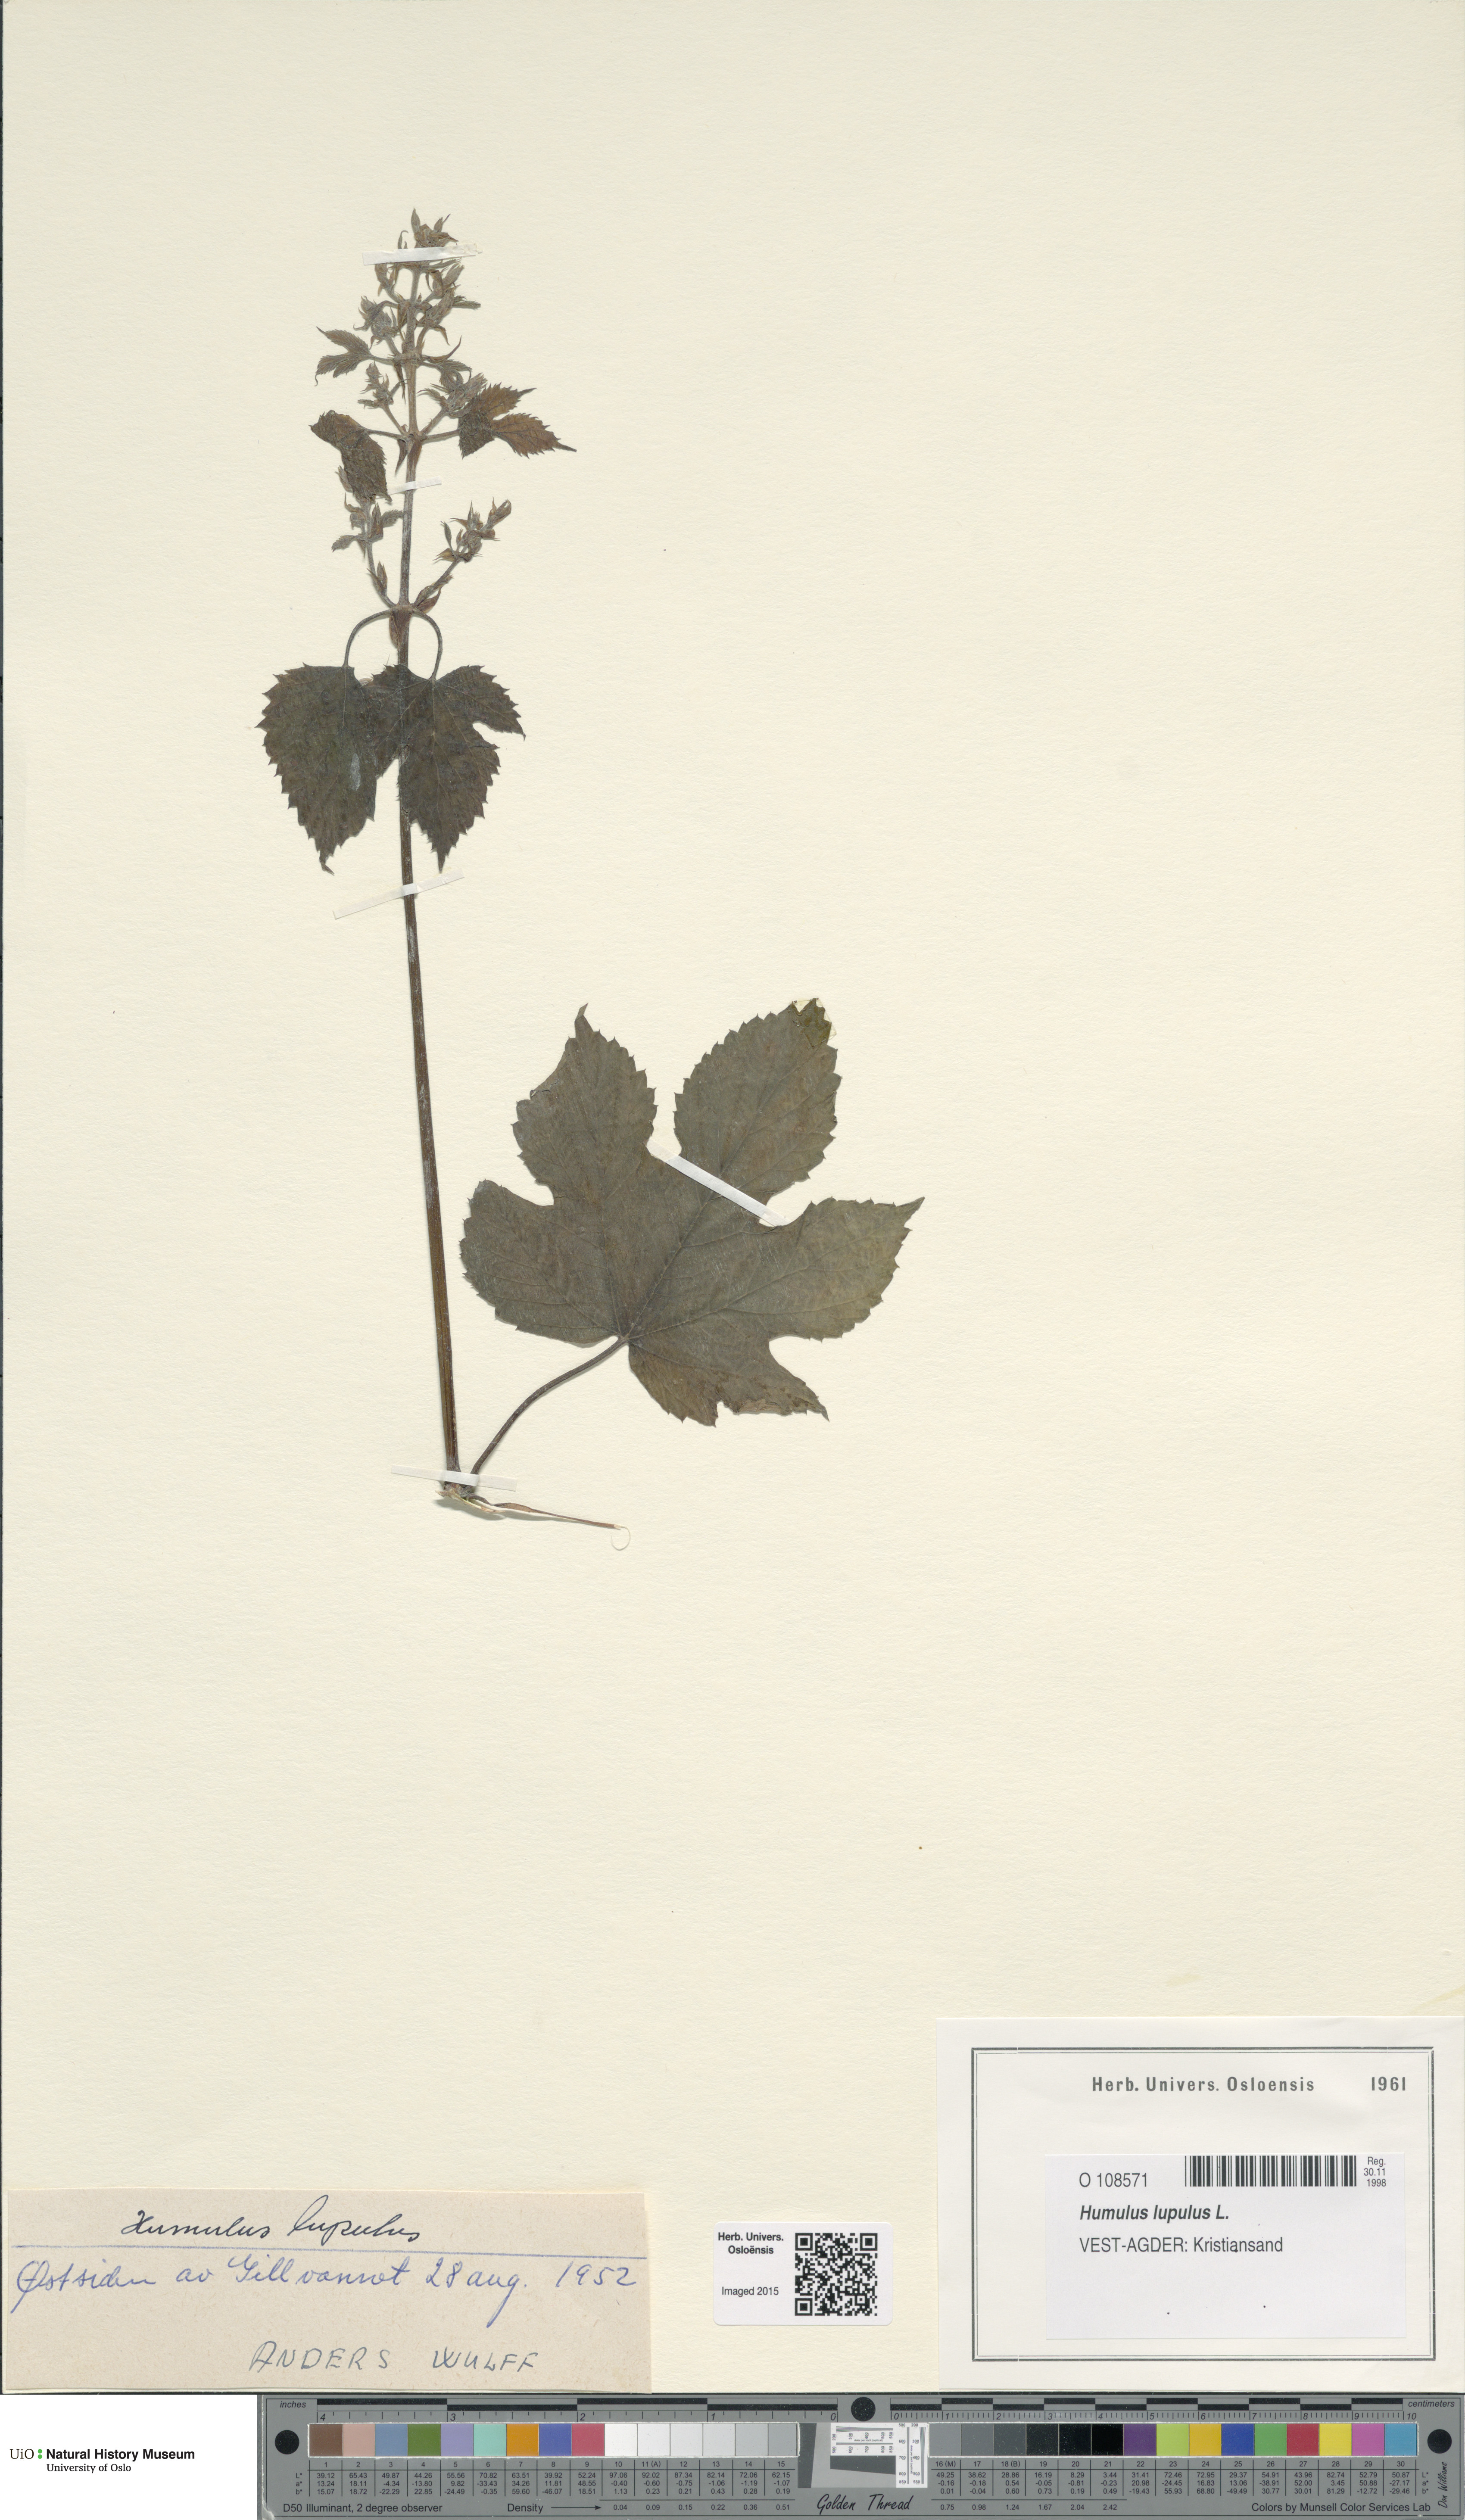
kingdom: Plantae
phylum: Tracheophyta
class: Magnoliopsida
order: Rosales
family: Cannabaceae
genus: Humulus
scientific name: Humulus lupulus
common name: Hop
